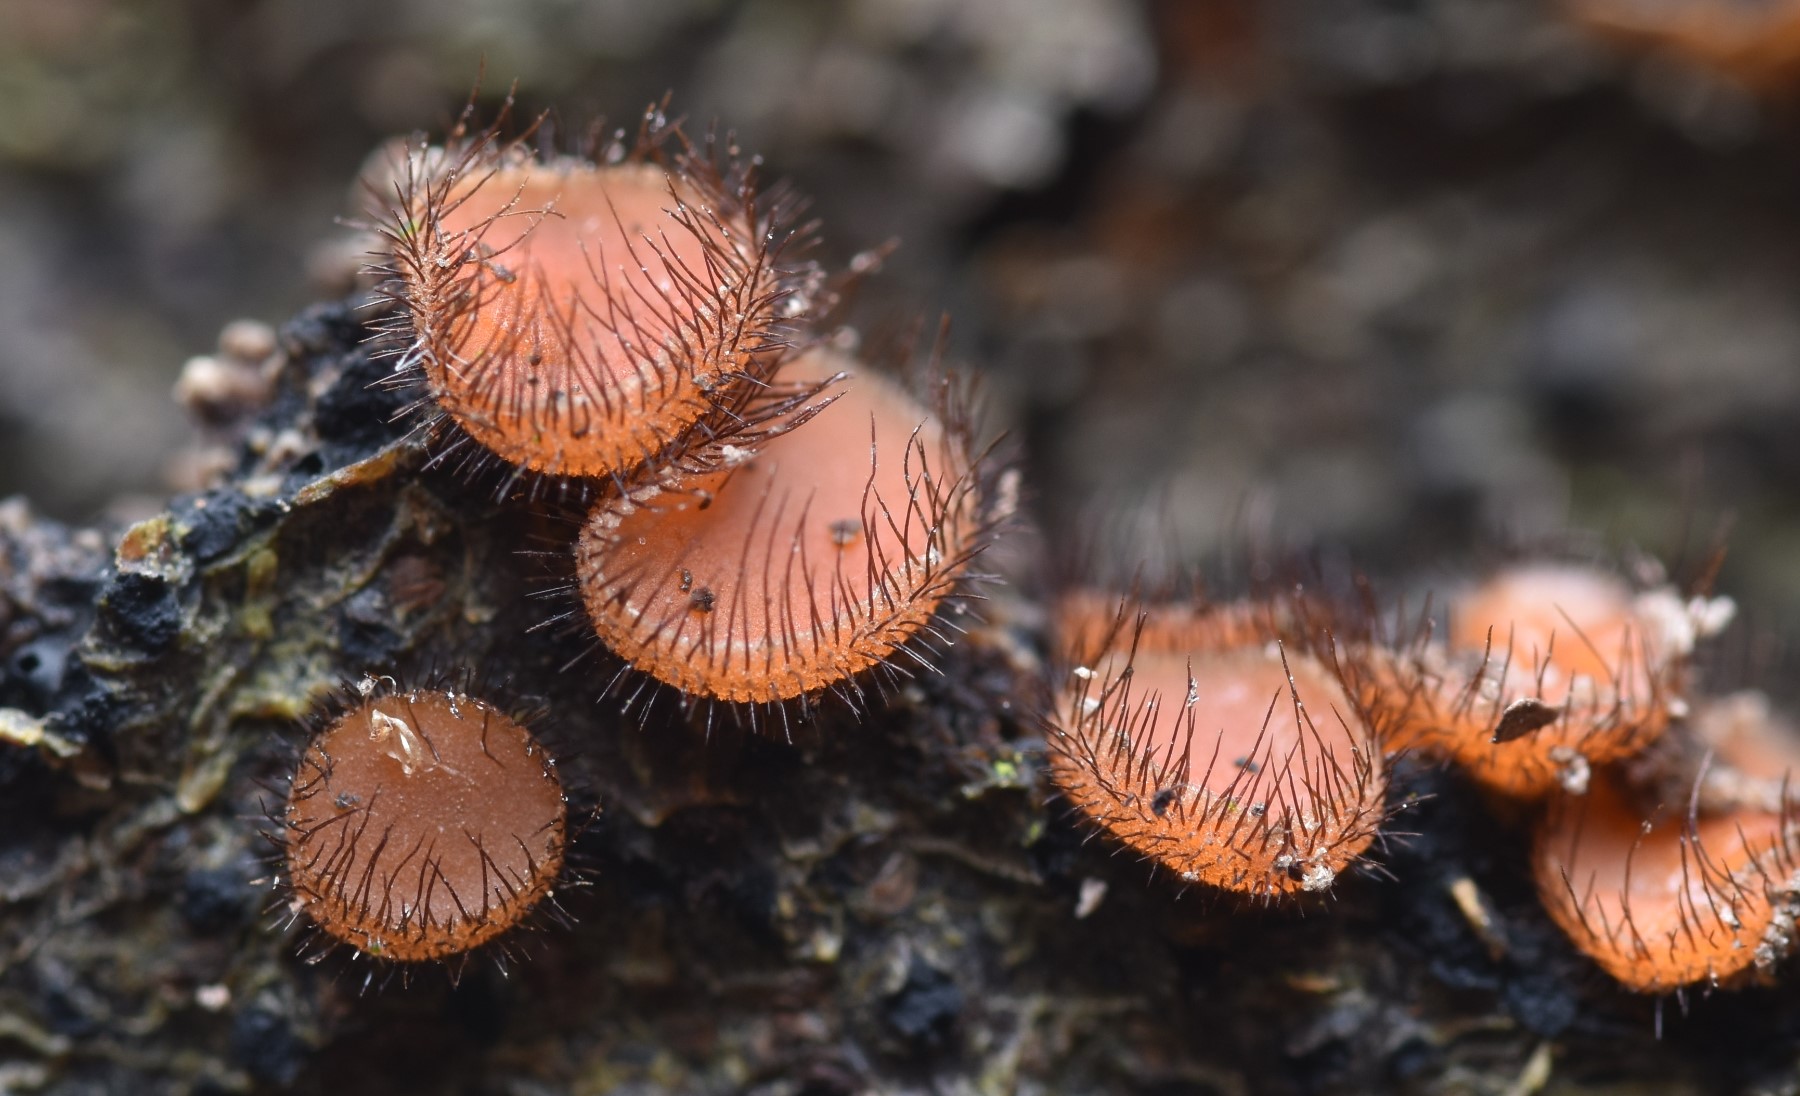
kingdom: Fungi
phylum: Ascomycota
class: Pezizomycetes
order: Pezizales
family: Pyronemataceae
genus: Scutellinia
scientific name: Scutellinia setosa
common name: pindsvine-skjoldbæger
